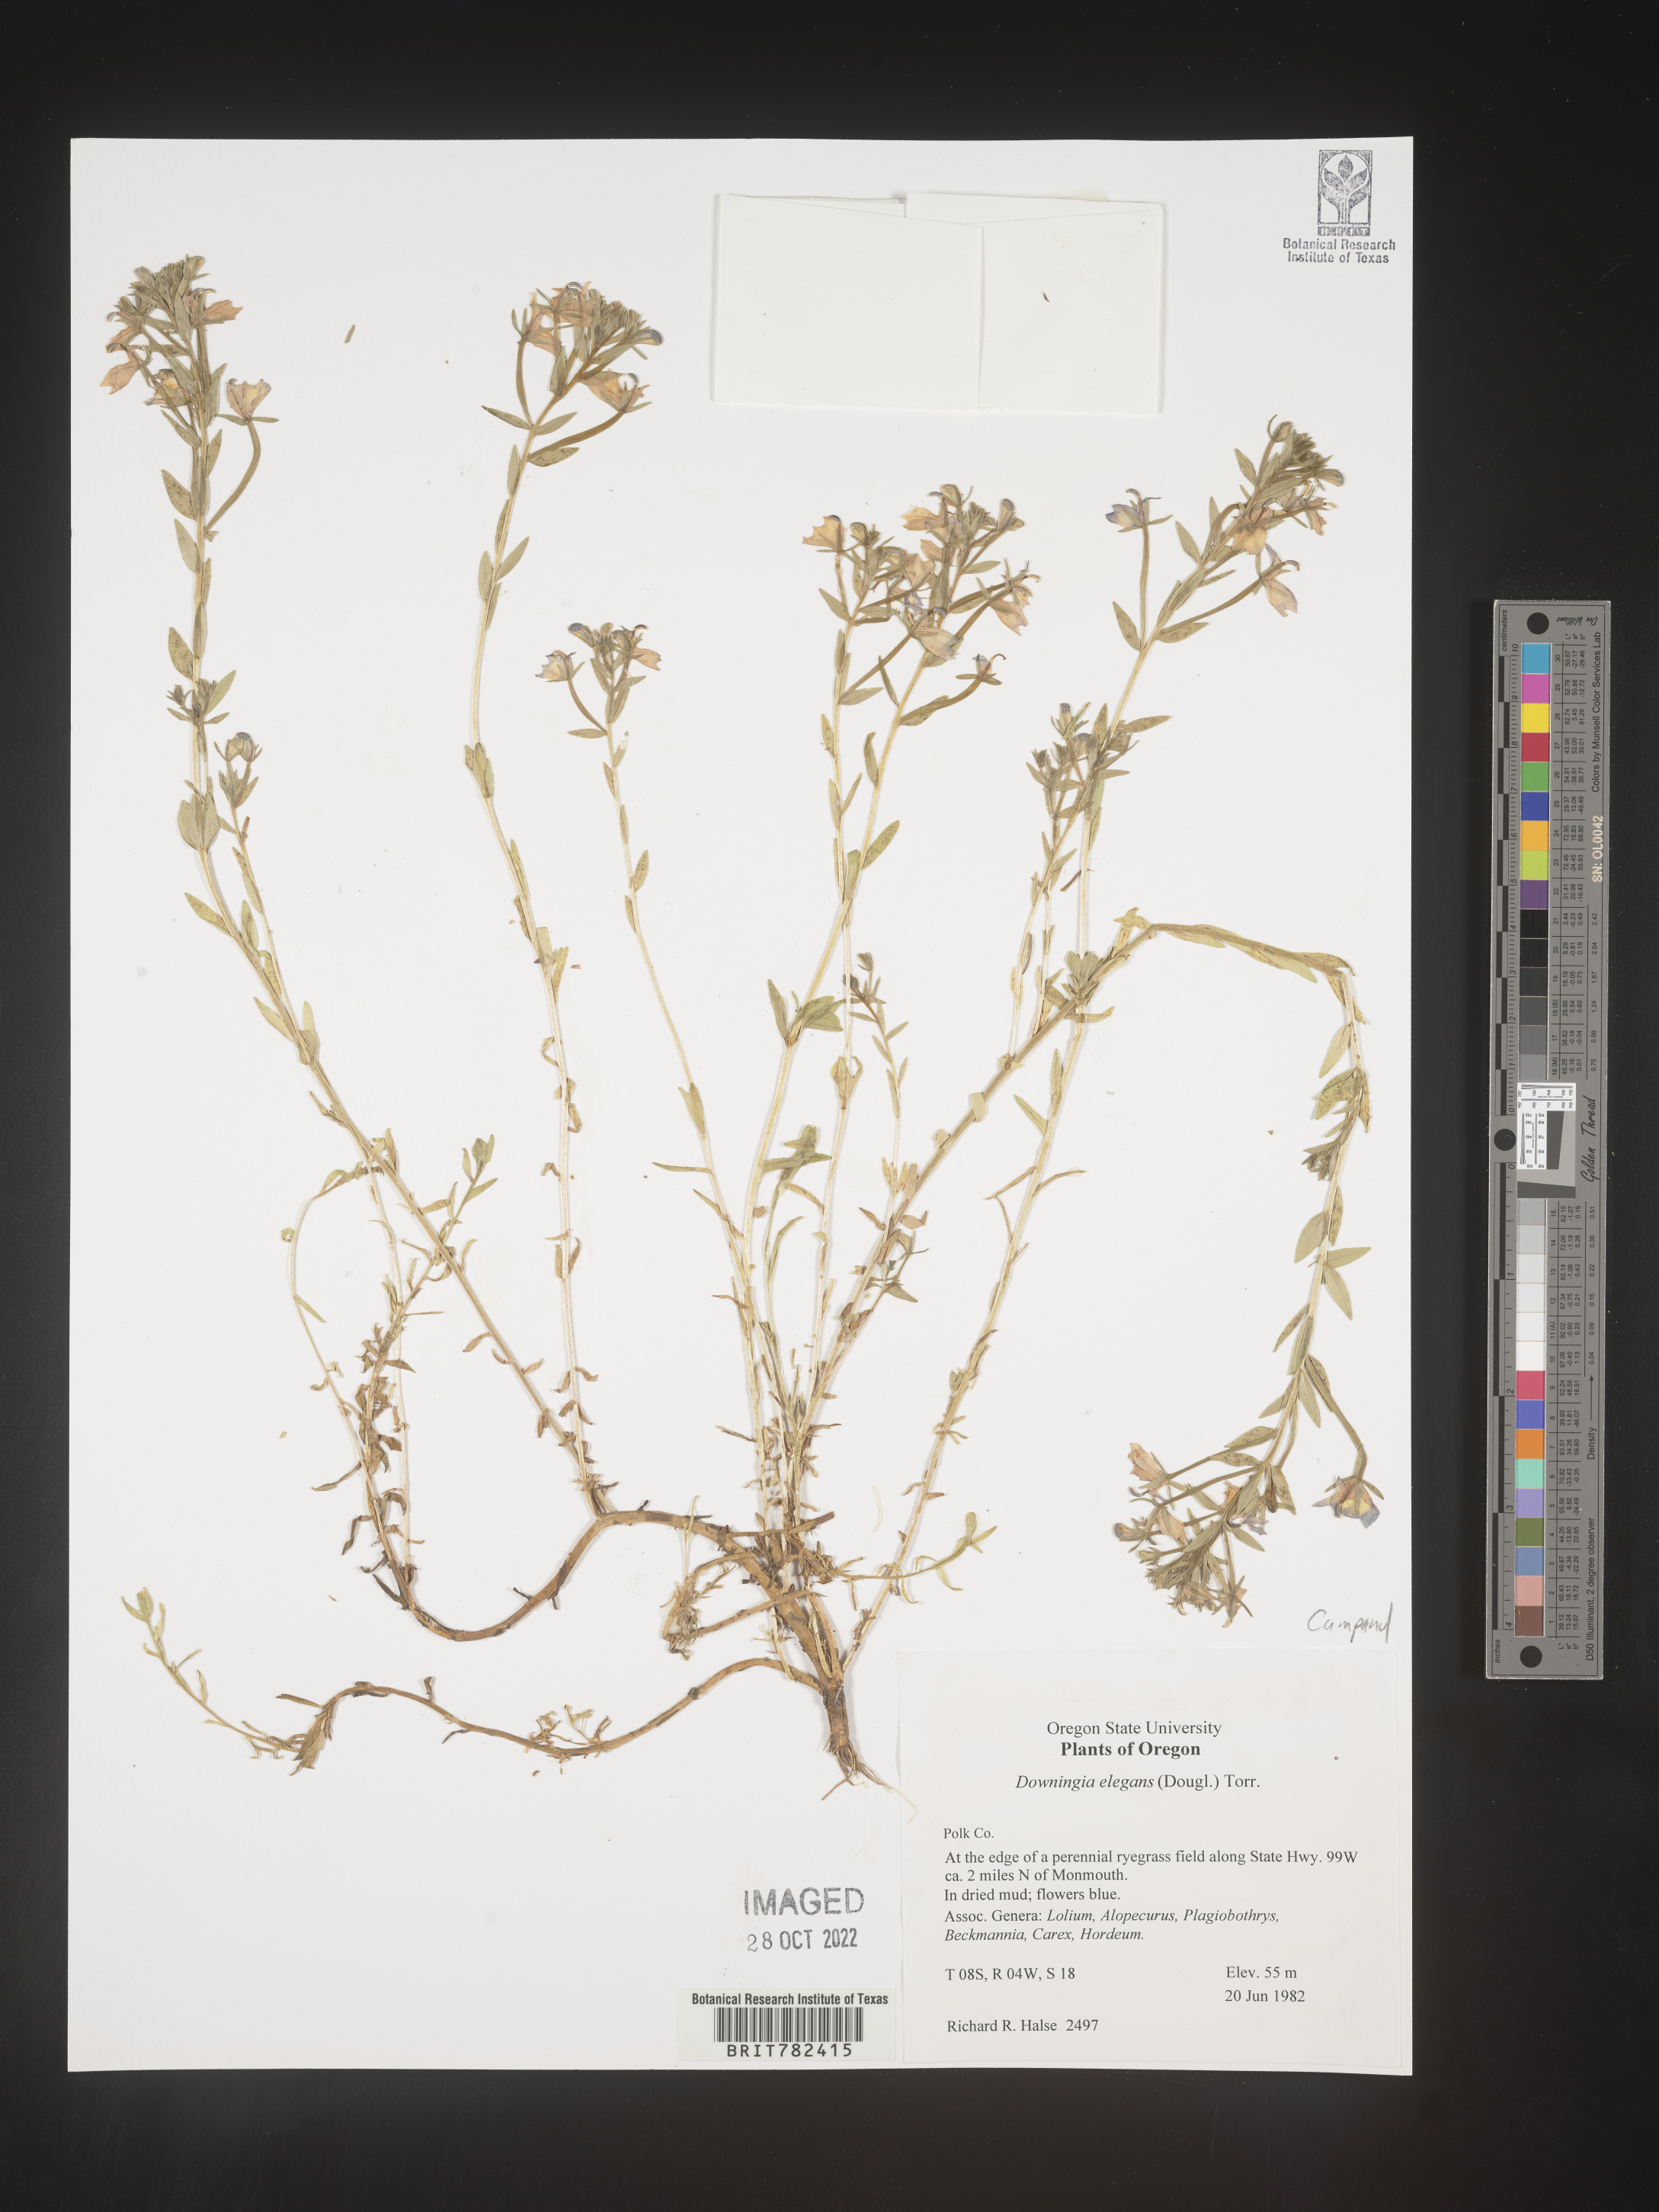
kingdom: Plantae
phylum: Tracheophyta
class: Magnoliopsida
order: Asterales
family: Campanulaceae
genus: Downingia
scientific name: Downingia
